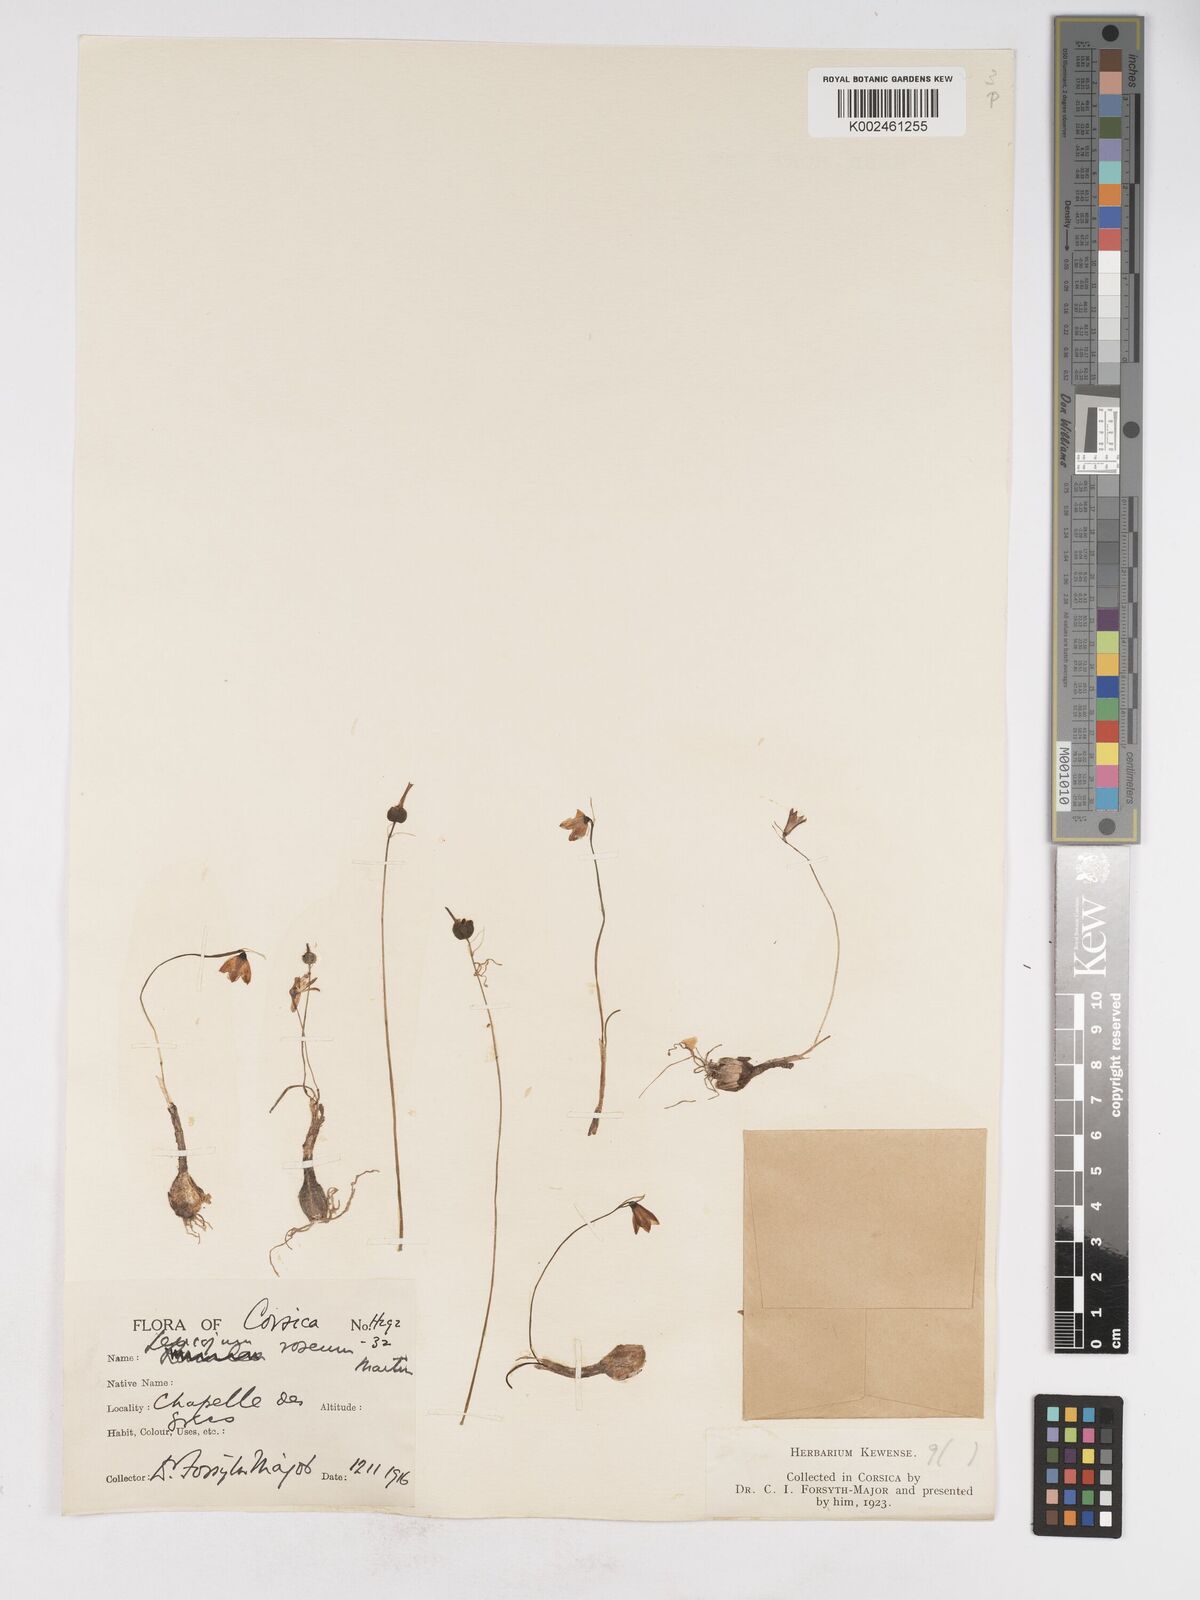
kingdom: Plantae
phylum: Tracheophyta
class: Liliopsida
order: Asparagales
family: Amaryllidaceae
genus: Acis
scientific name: Acis rosea
